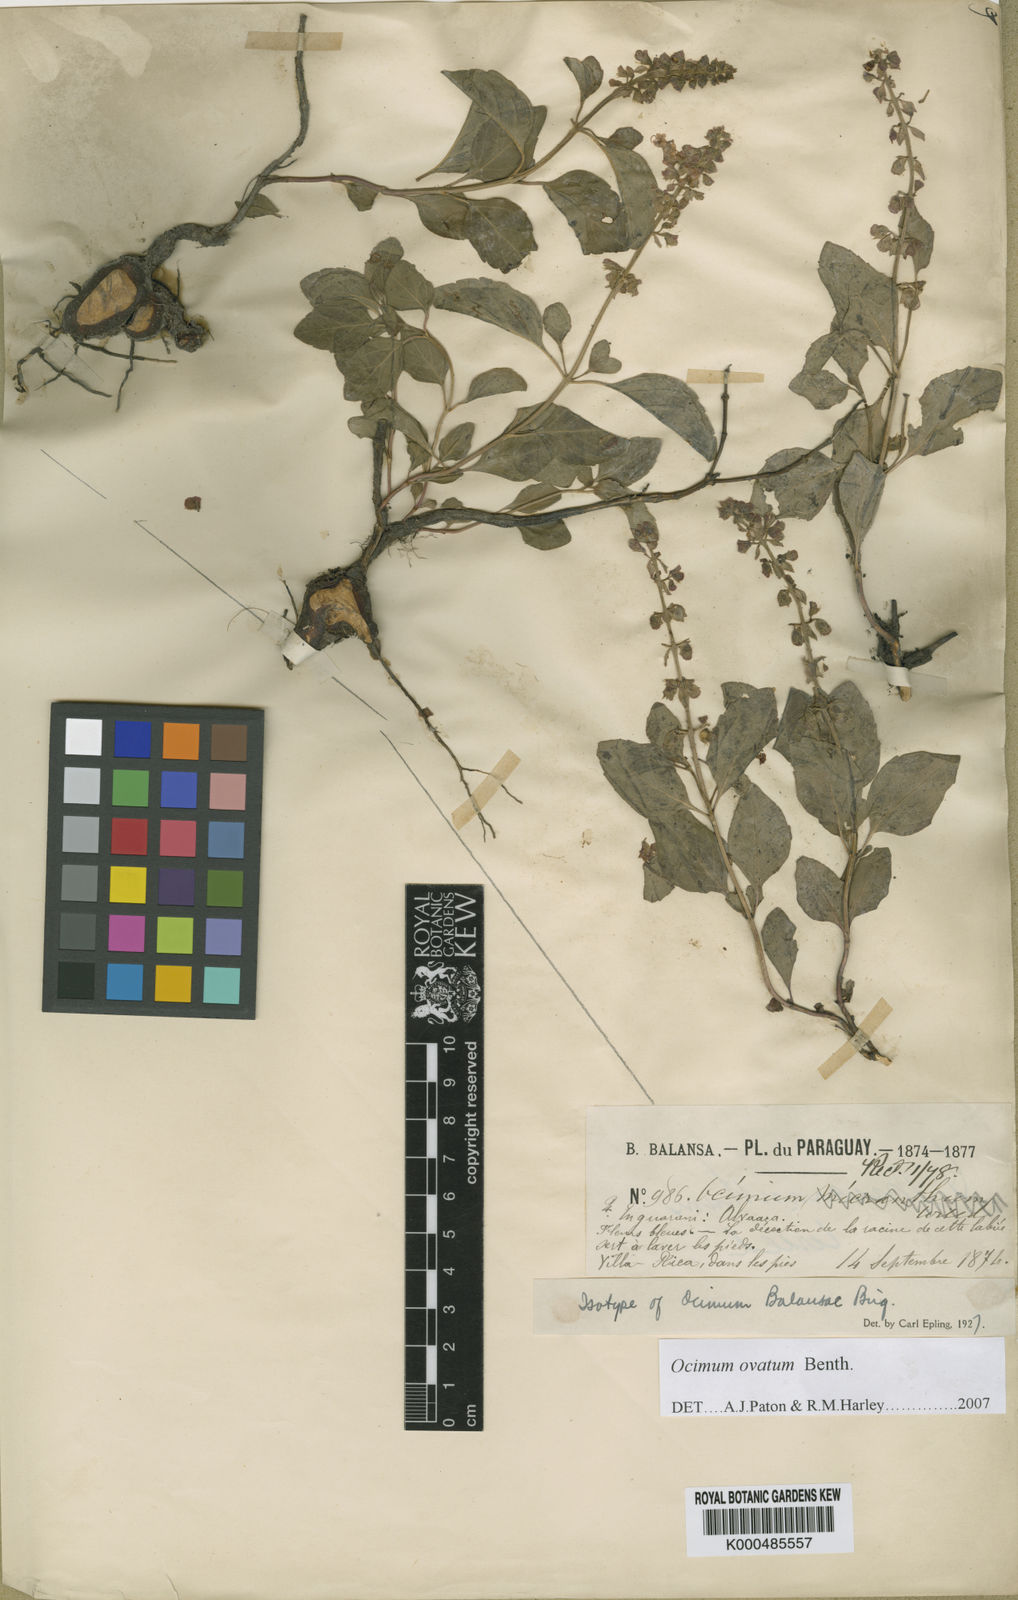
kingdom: Plantae
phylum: Tracheophyta
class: Magnoliopsida
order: Lamiales
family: Lamiaceae
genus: Ocimum
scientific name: Ocimum ovatum
